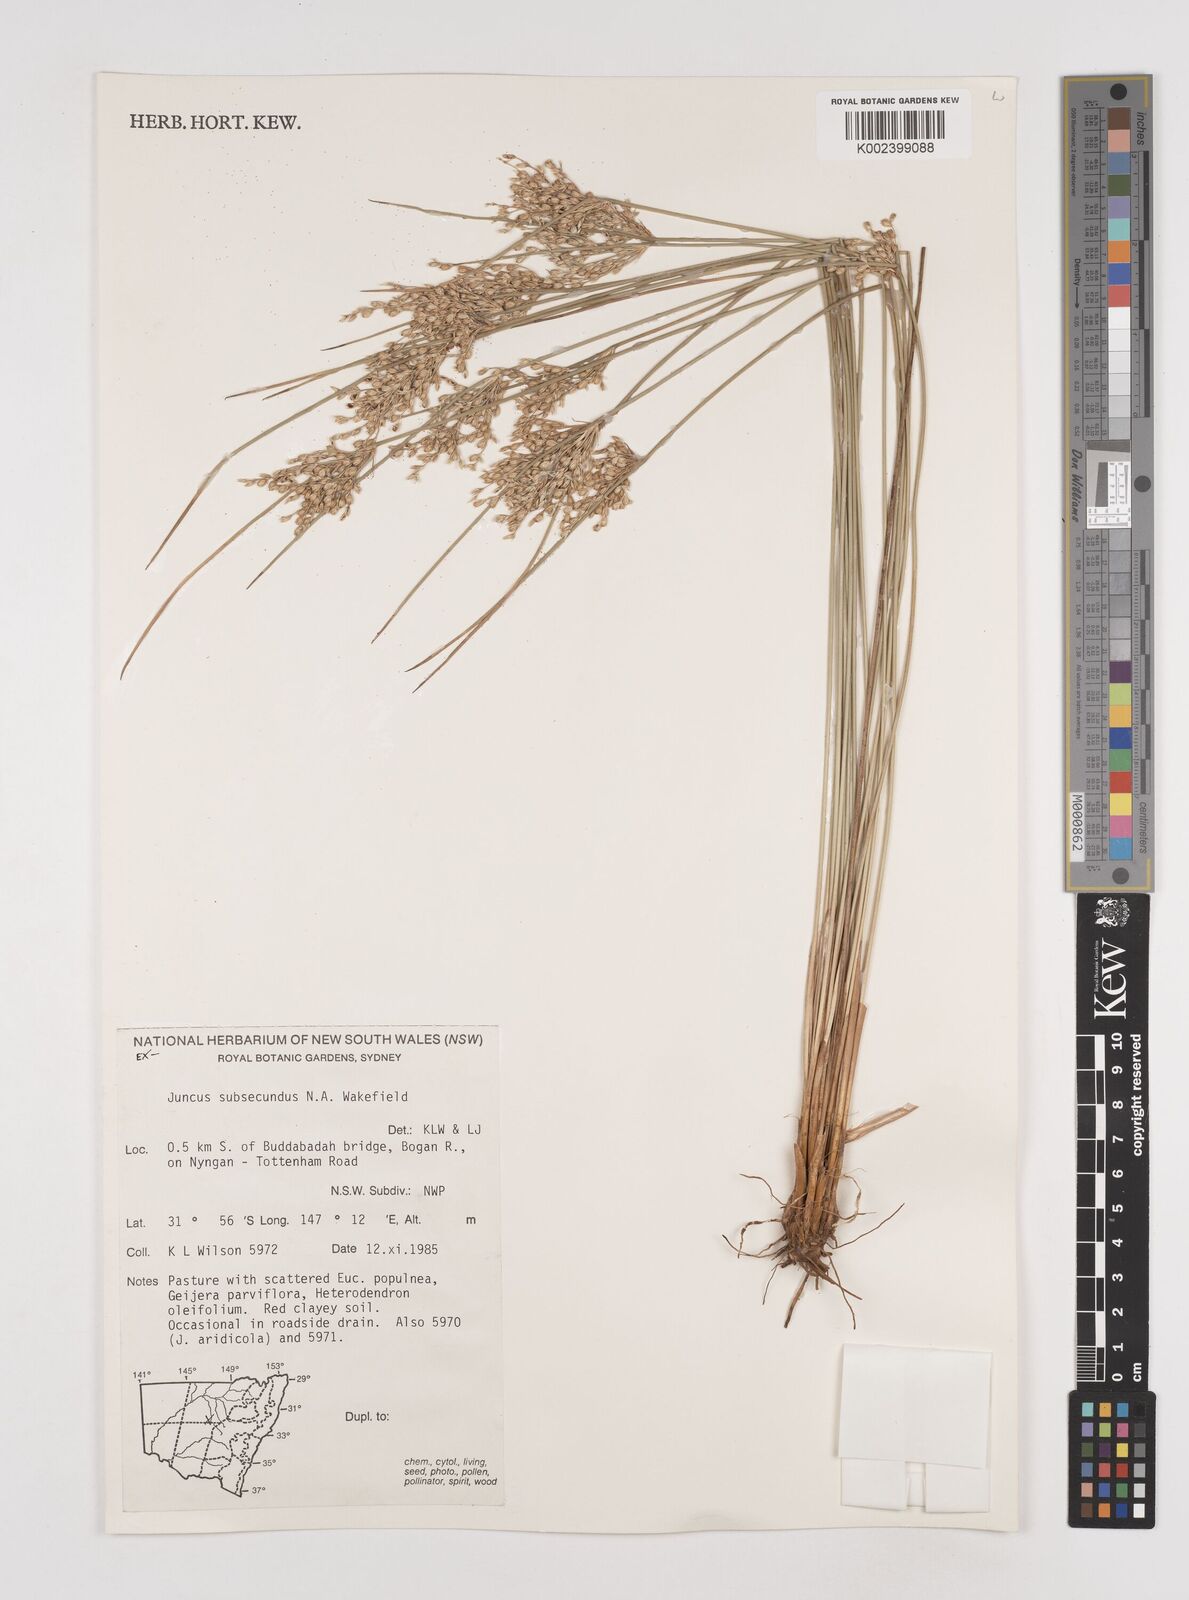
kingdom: Plantae
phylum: Tracheophyta
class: Liliopsida
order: Poales
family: Juncaceae
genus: Juncus
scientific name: Juncus subsecundus
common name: Fingered rush
